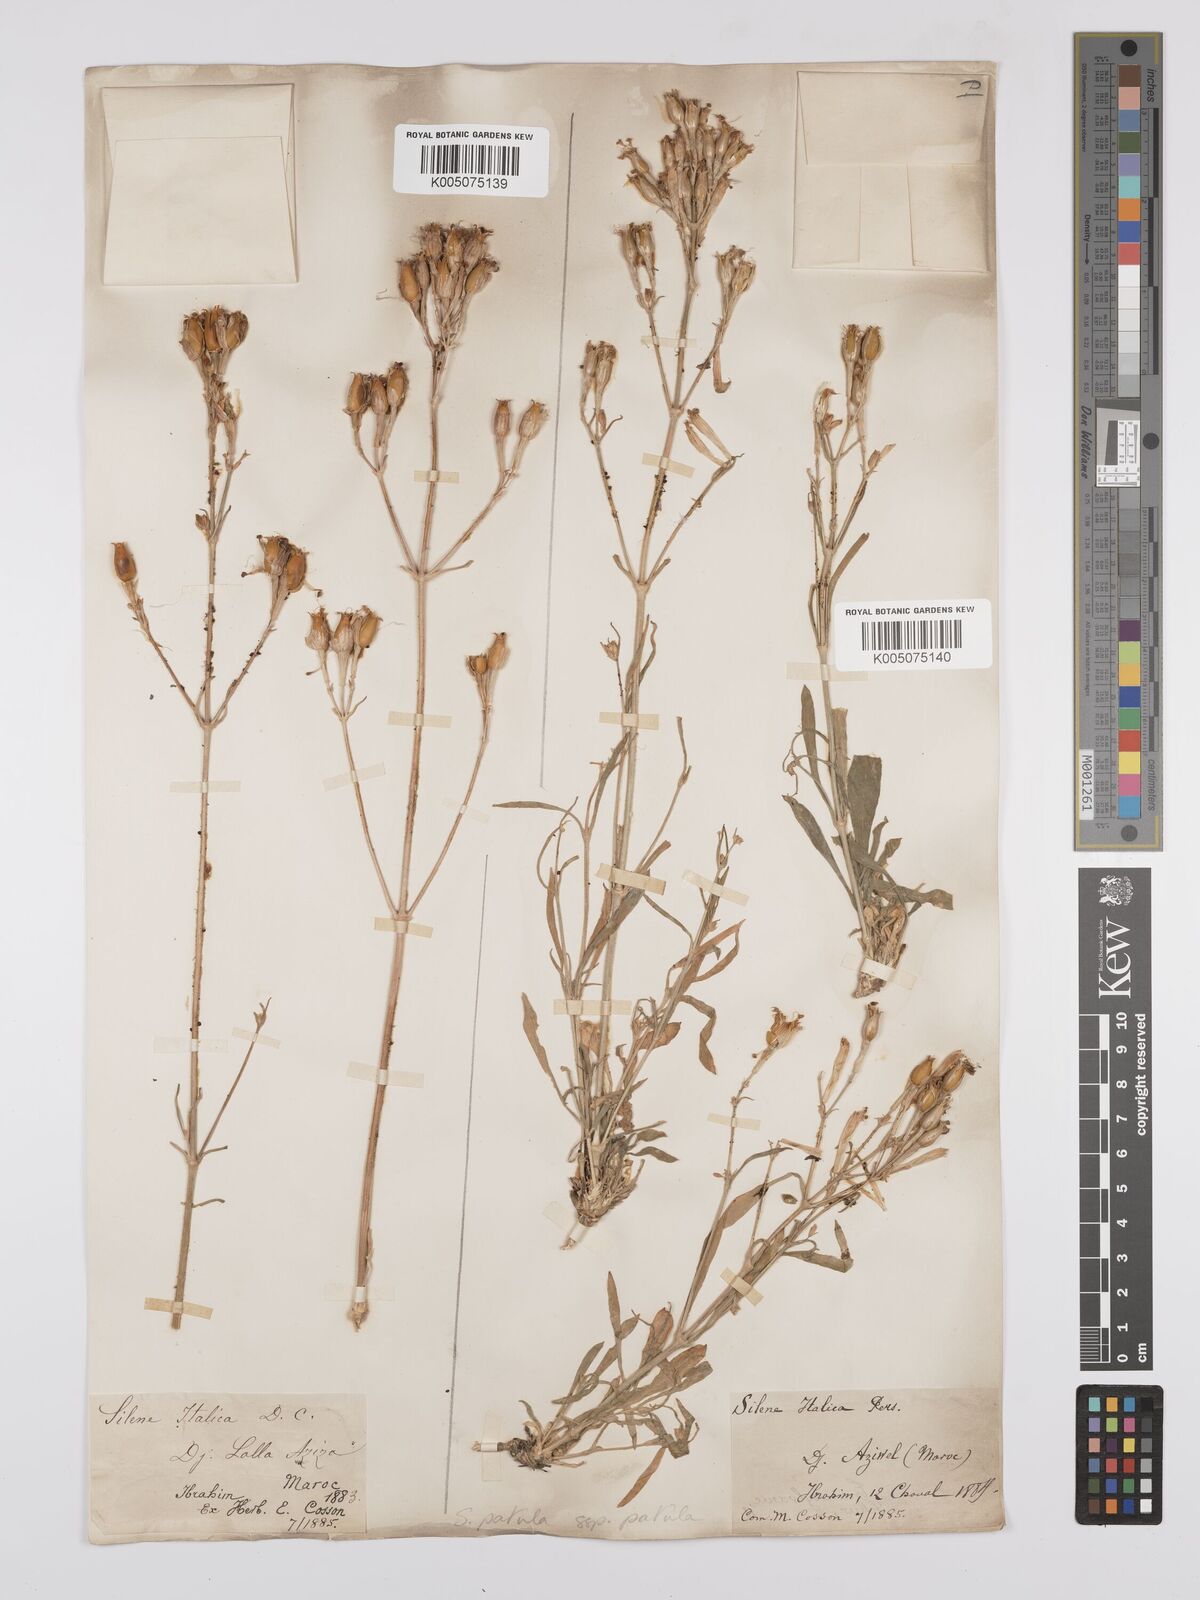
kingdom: Plantae
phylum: Tracheophyta
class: Magnoliopsida
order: Caryophyllales
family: Caryophyllaceae
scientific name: Caryophyllaceae
